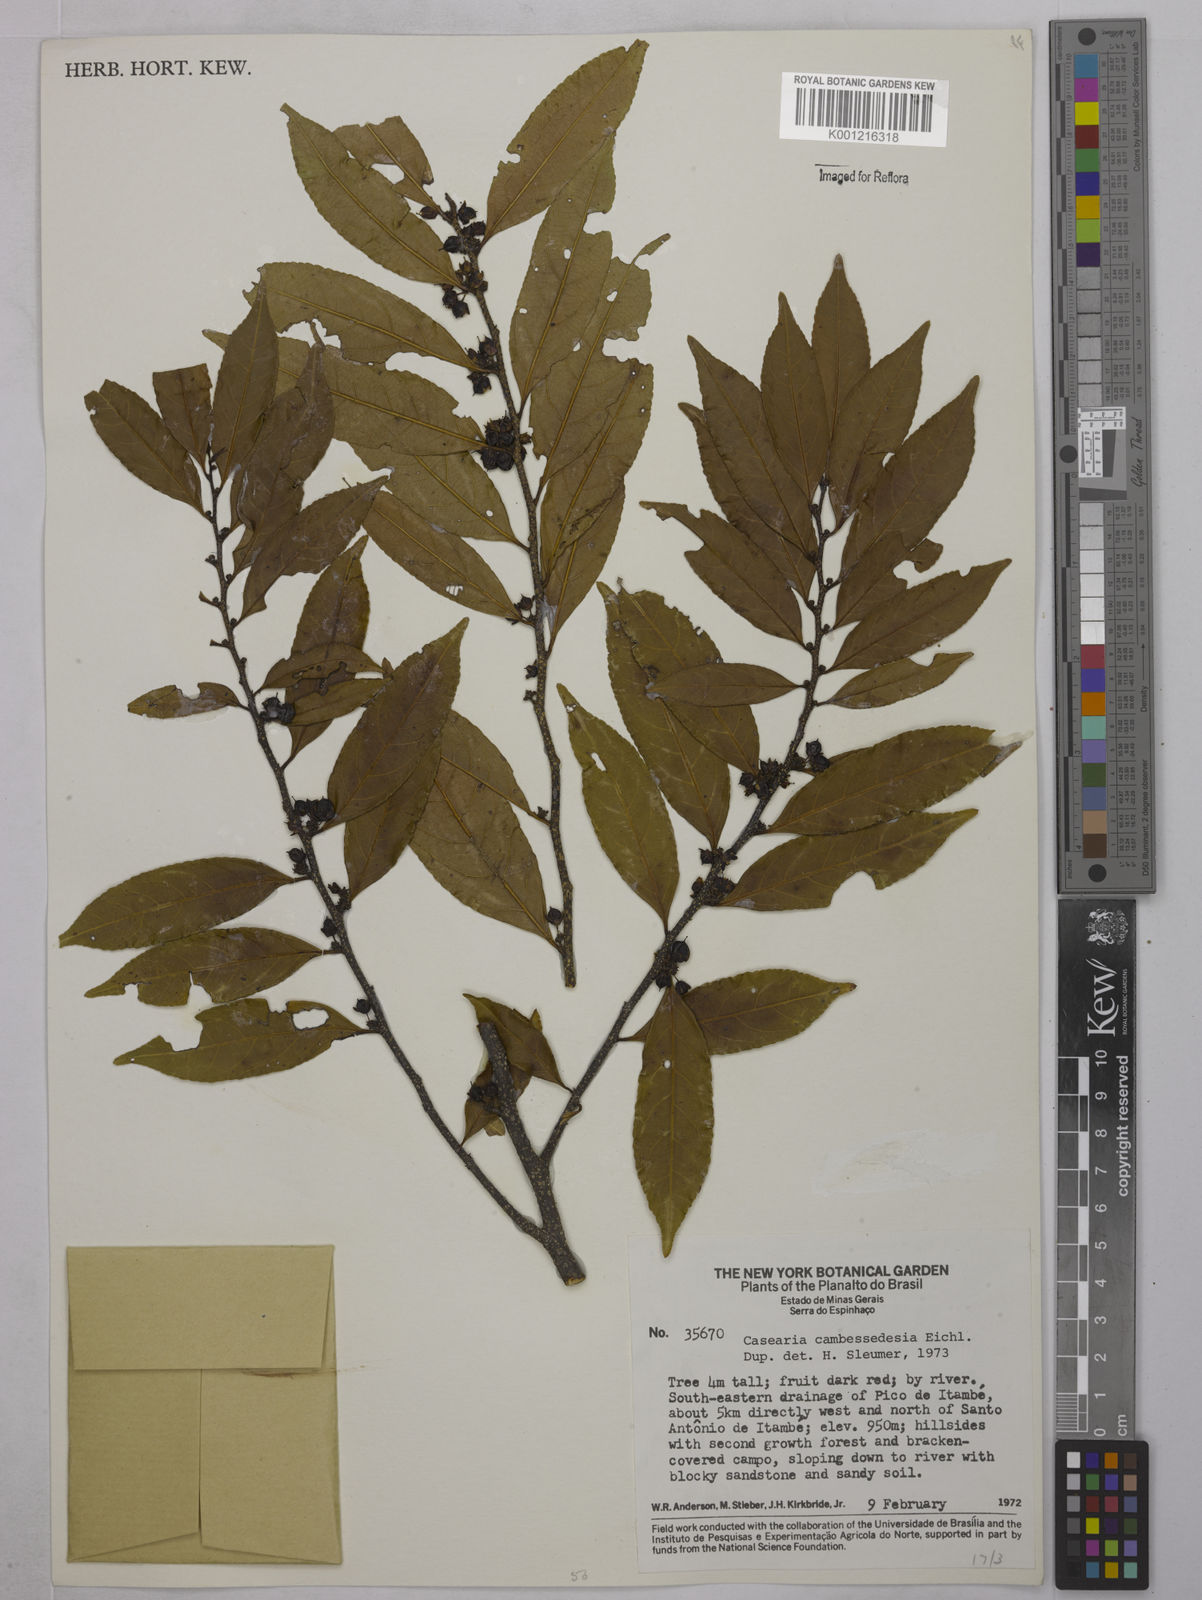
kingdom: Plantae
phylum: Tracheophyta
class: Magnoliopsida
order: Malpighiales
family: Salicaceae
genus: Casearia
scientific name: Casearia arborea
